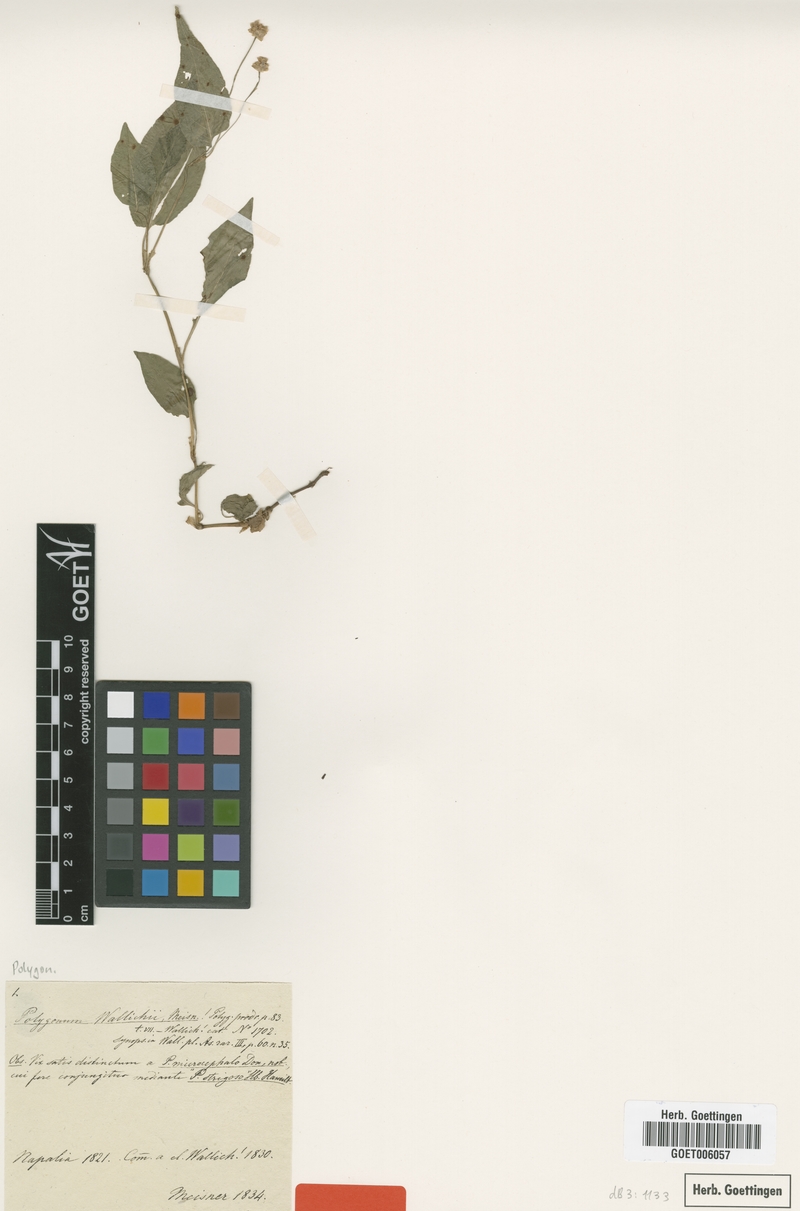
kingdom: Plantae
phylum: Tracheophyta
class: Magnoliopsida
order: Caryophyllales
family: Polygonaceae
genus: Persicaria
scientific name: Persicaria greuteriana
